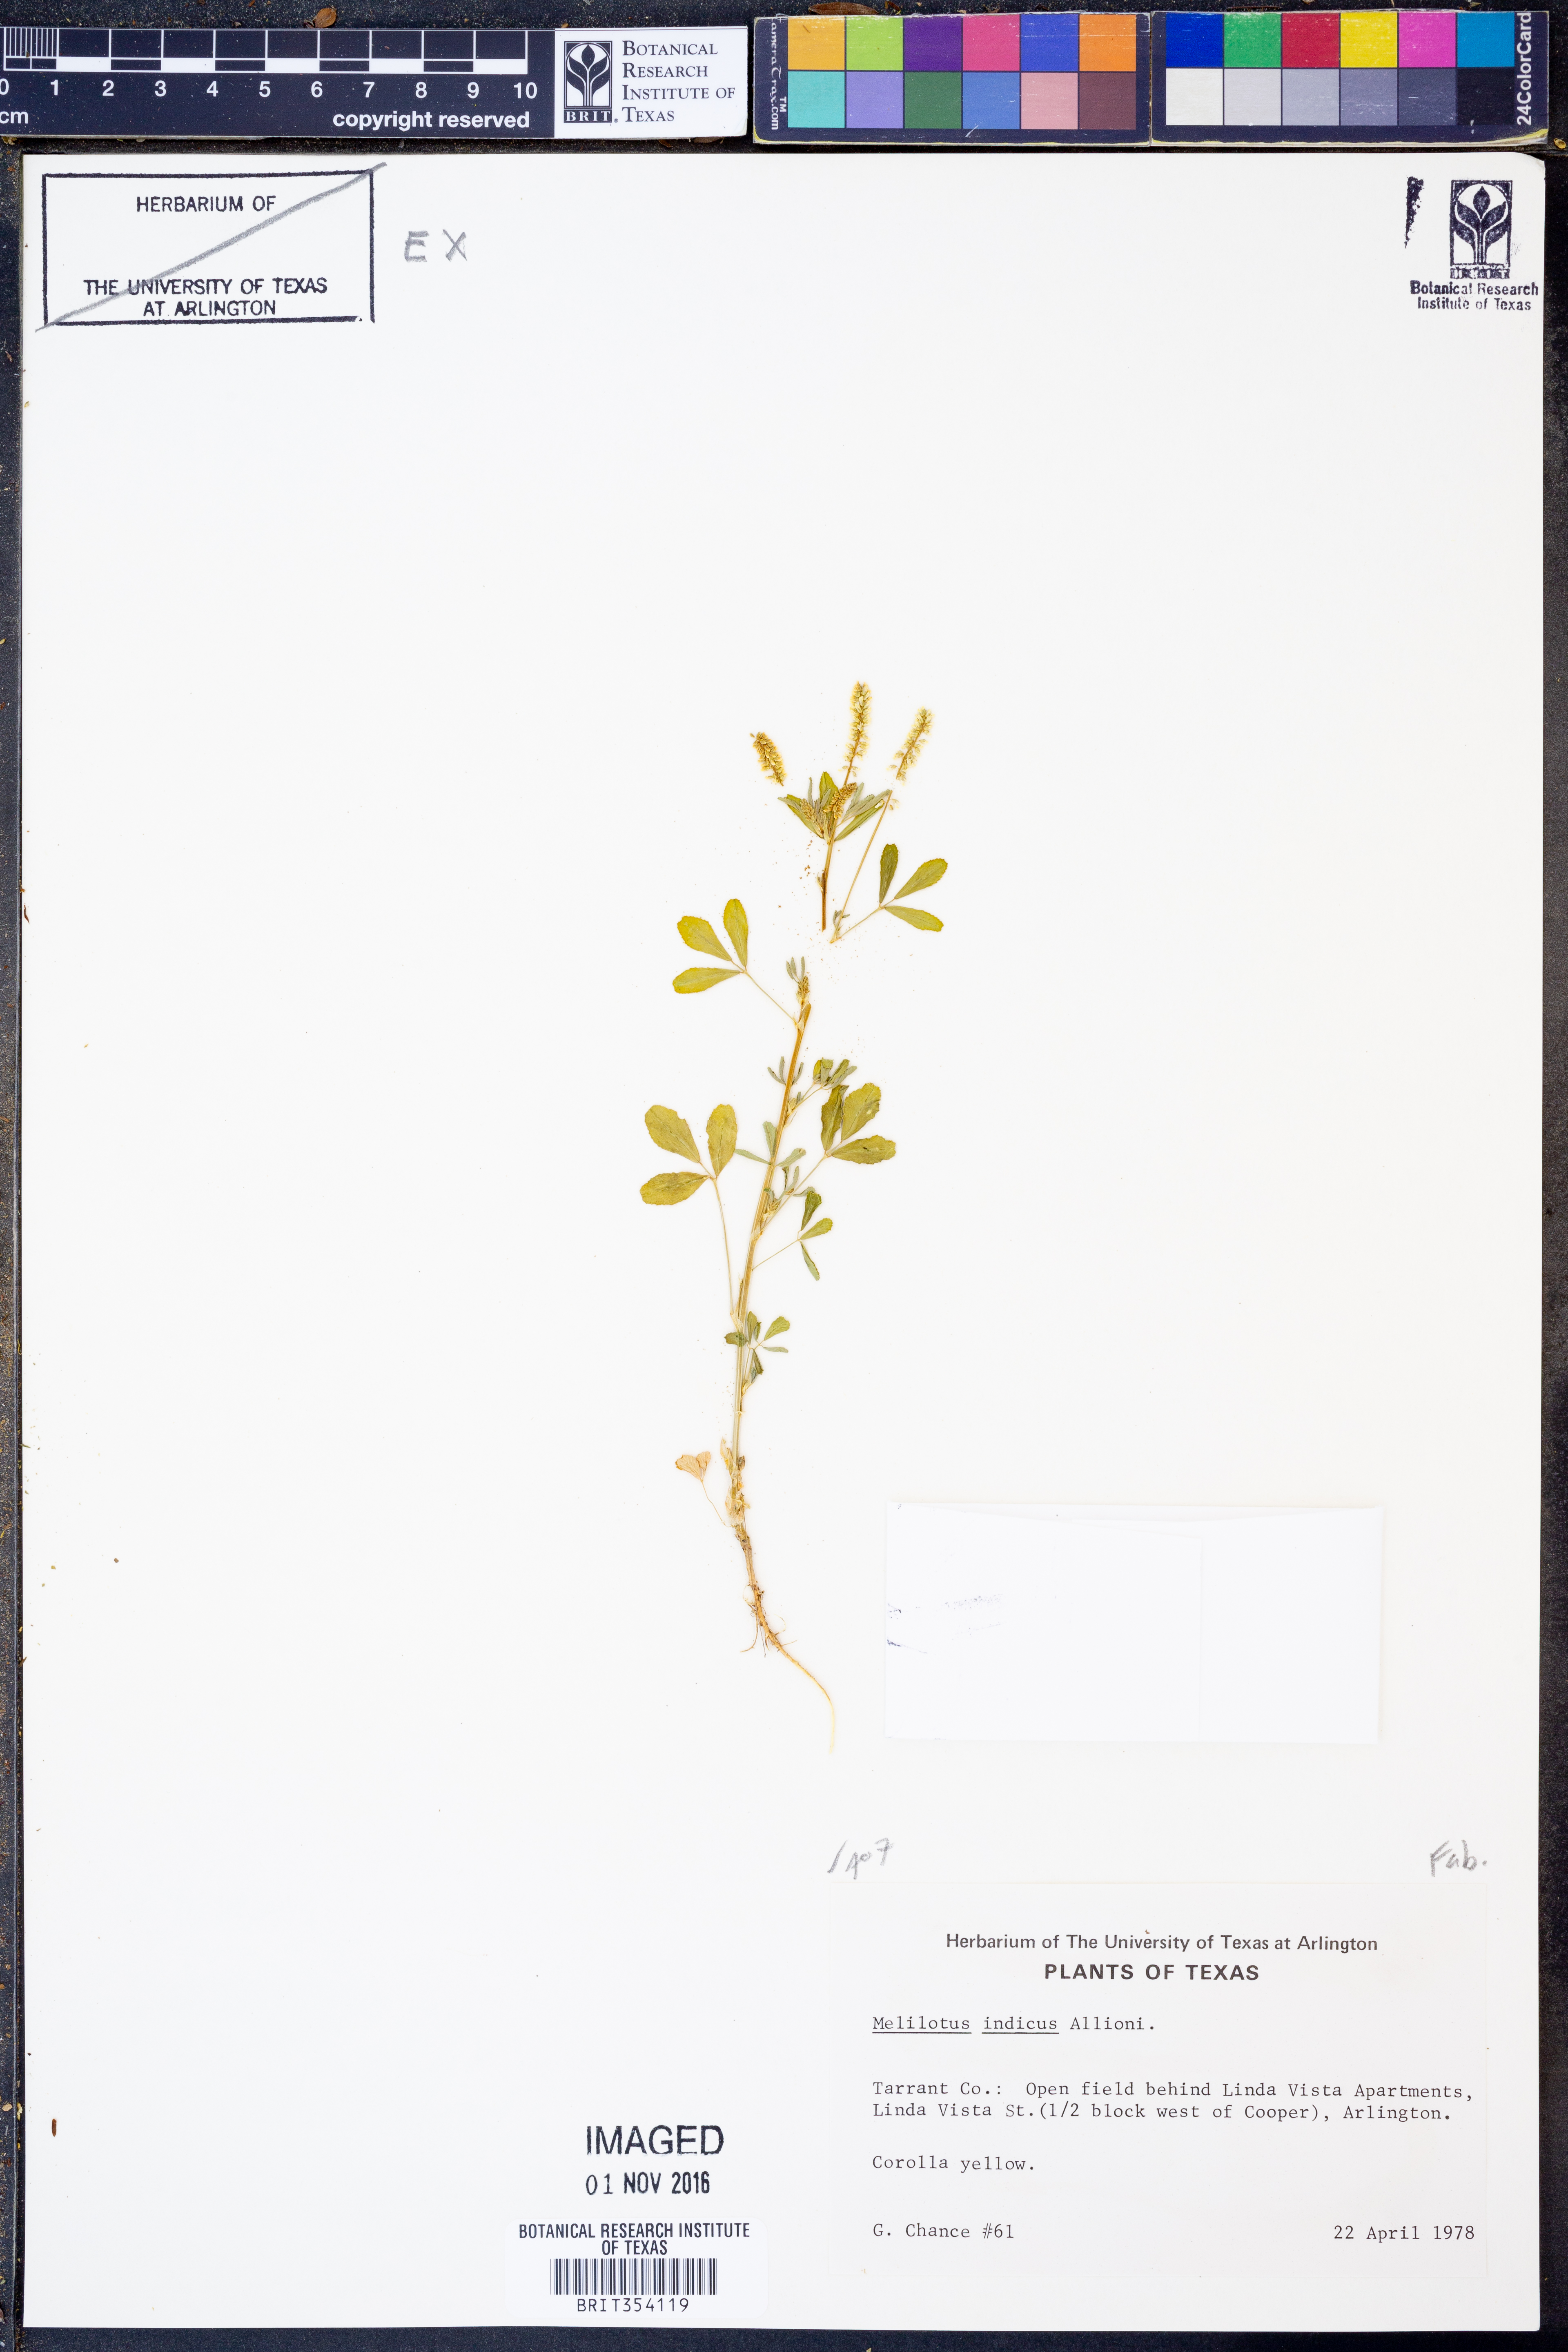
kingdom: Plantae
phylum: Tracheophyta
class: Magnoliopsida
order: Fabales
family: Fabaceae
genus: Melilotus
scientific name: Melilotus indicus
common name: Small melilot
